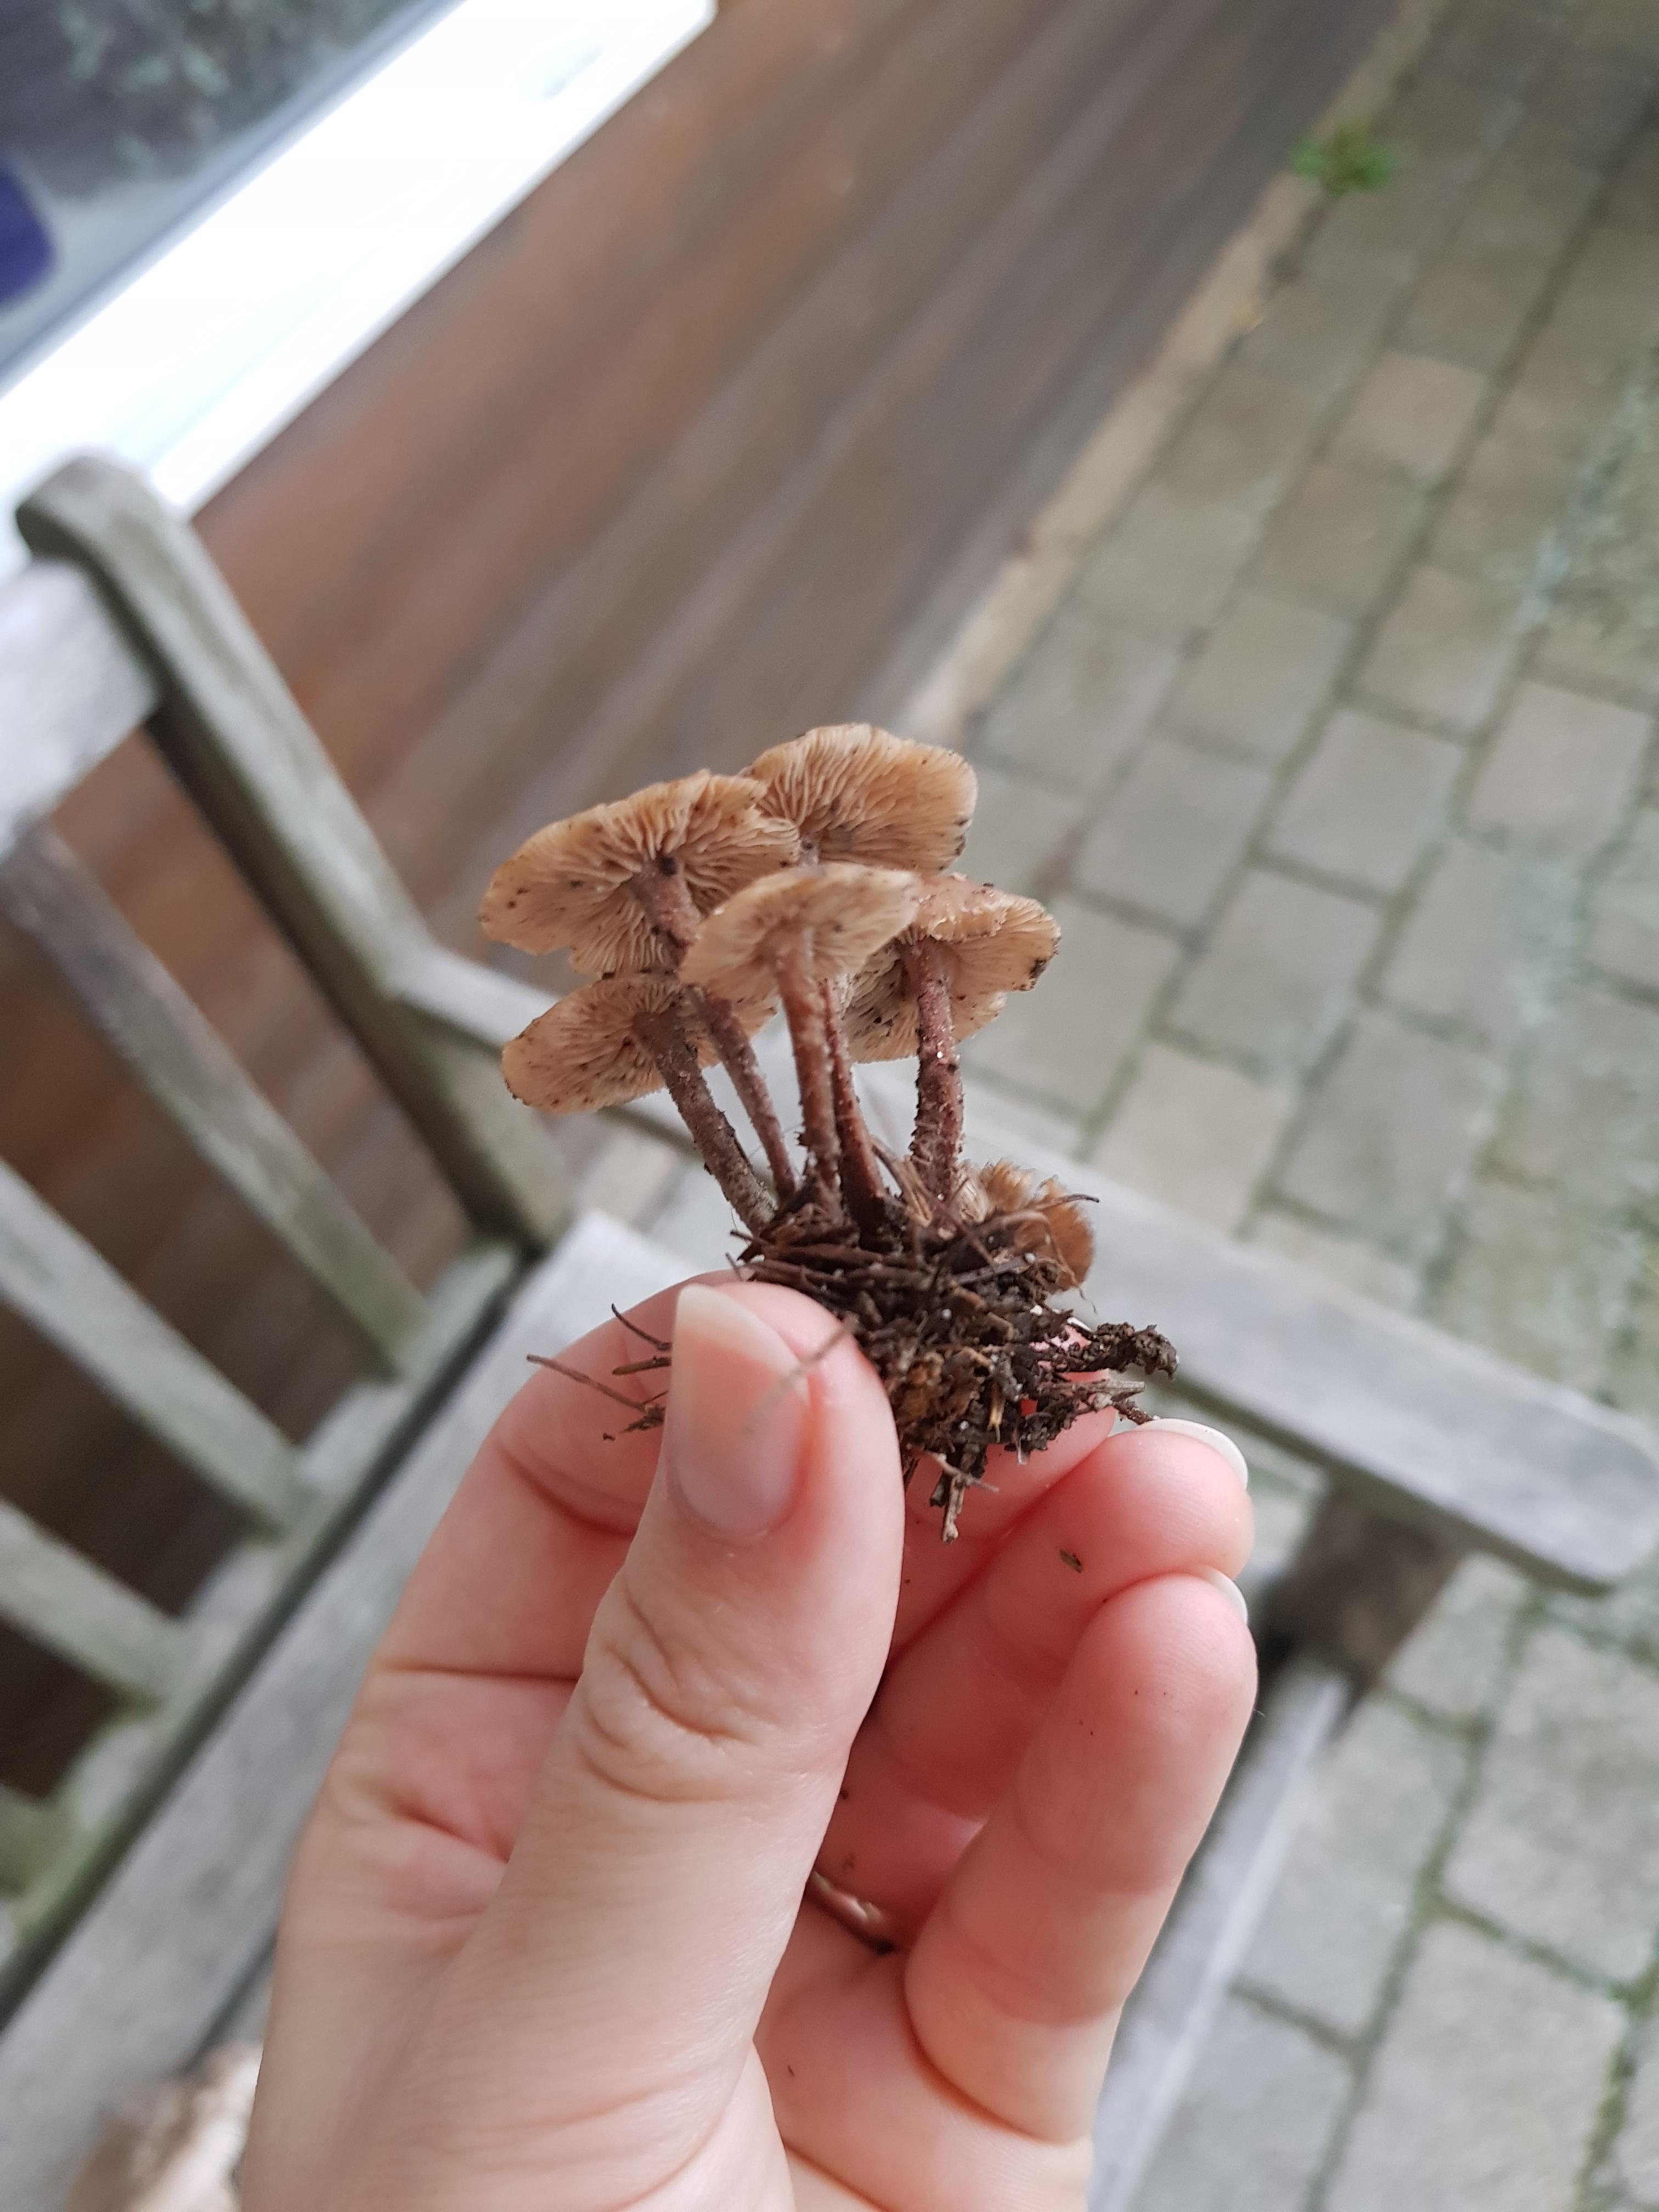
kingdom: Fungi
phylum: Basidiomycota
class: Agaricomycetes
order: Agaricales
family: Omphalotaceae
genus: Gymnopus
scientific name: Gymnopus
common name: fladhat
